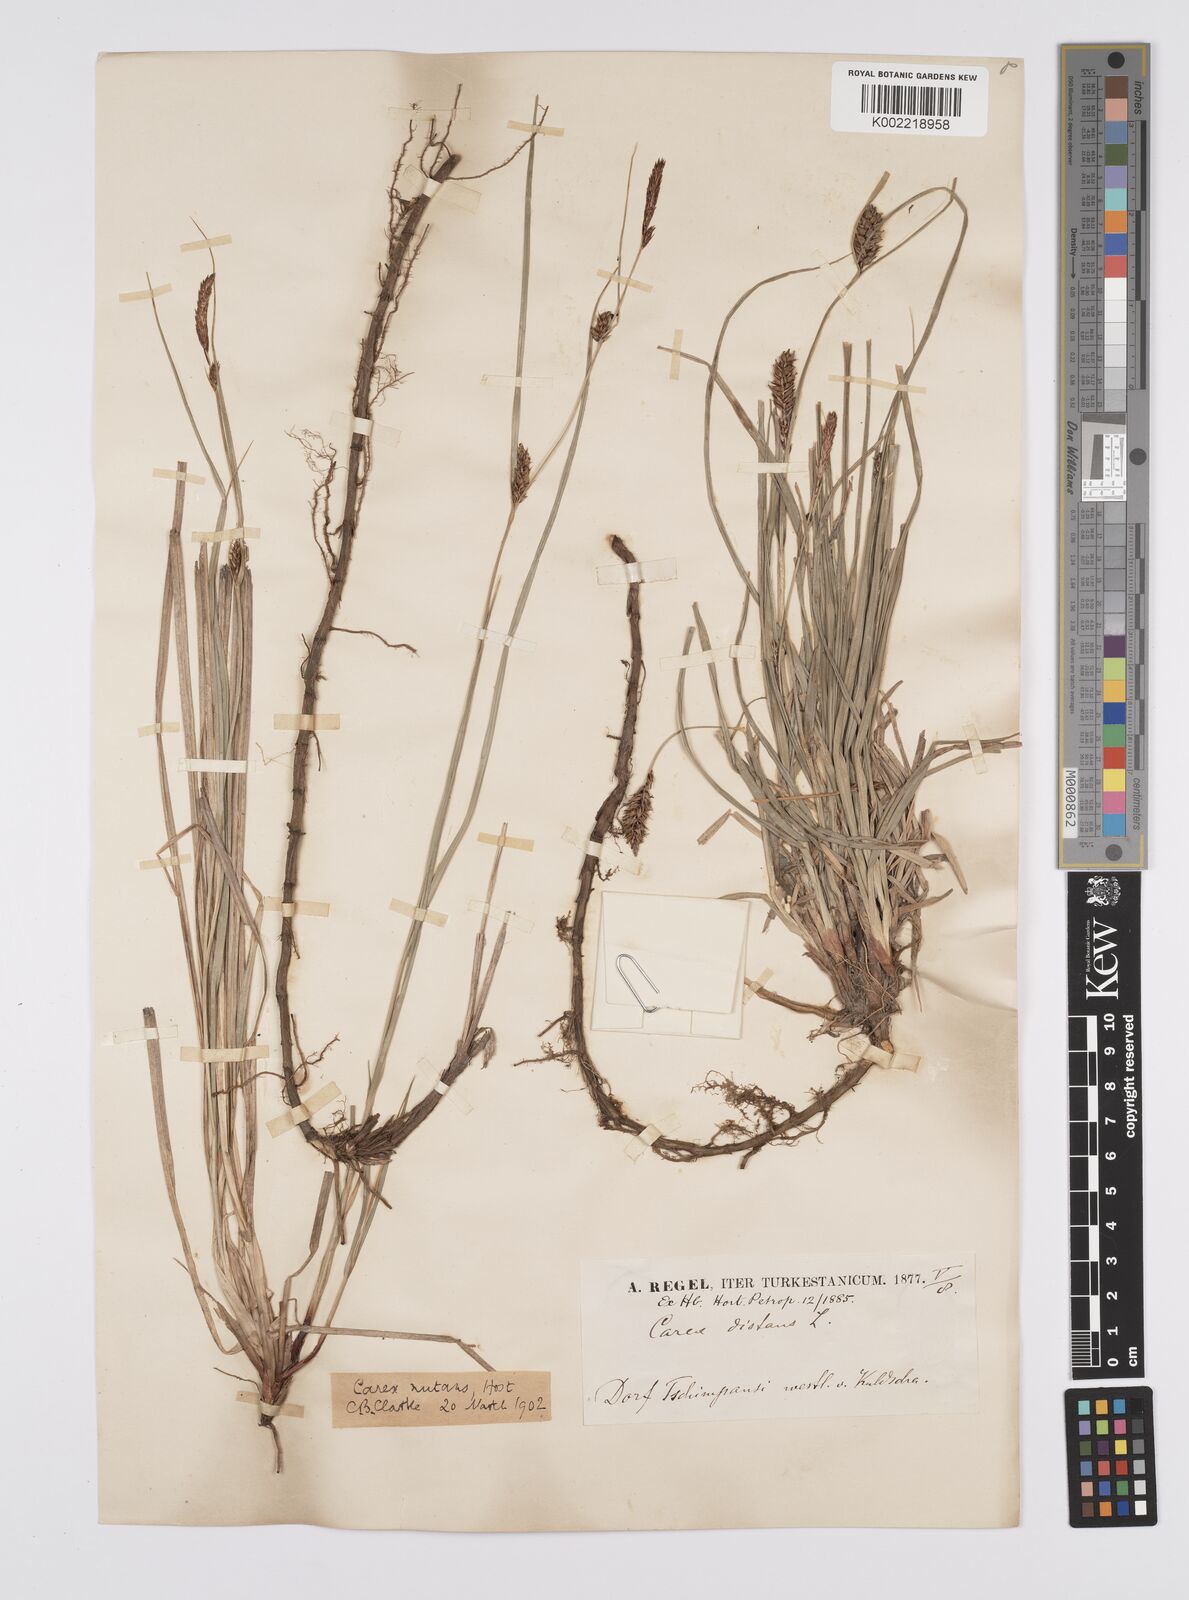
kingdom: Plantae
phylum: Tracheophyta
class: Liliopsida
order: Poales
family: Cyperaceae
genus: Carex
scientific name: Carex melanostachya
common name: Black-spiked sedge
